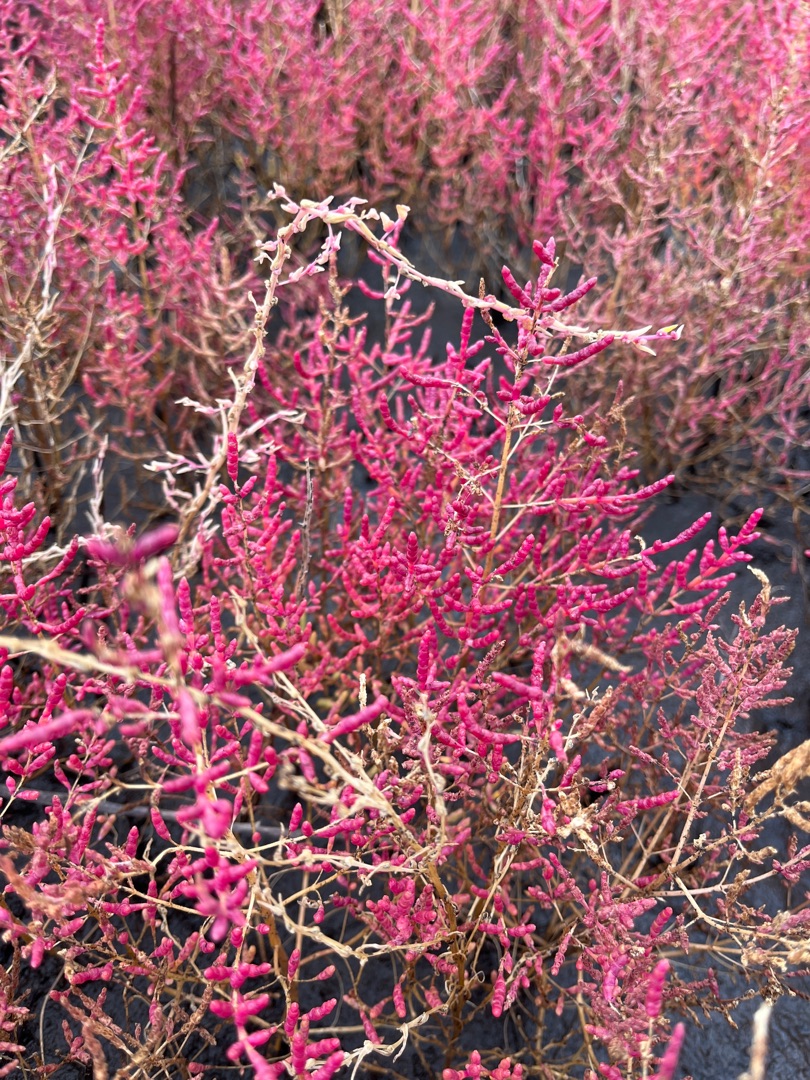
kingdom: Plantae
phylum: Tracheophyta
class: Magnoliopsida
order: Caryophyllales
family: Amaranthaceae
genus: Salicornia
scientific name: Salicornia europaea
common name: Almindelig salturt
